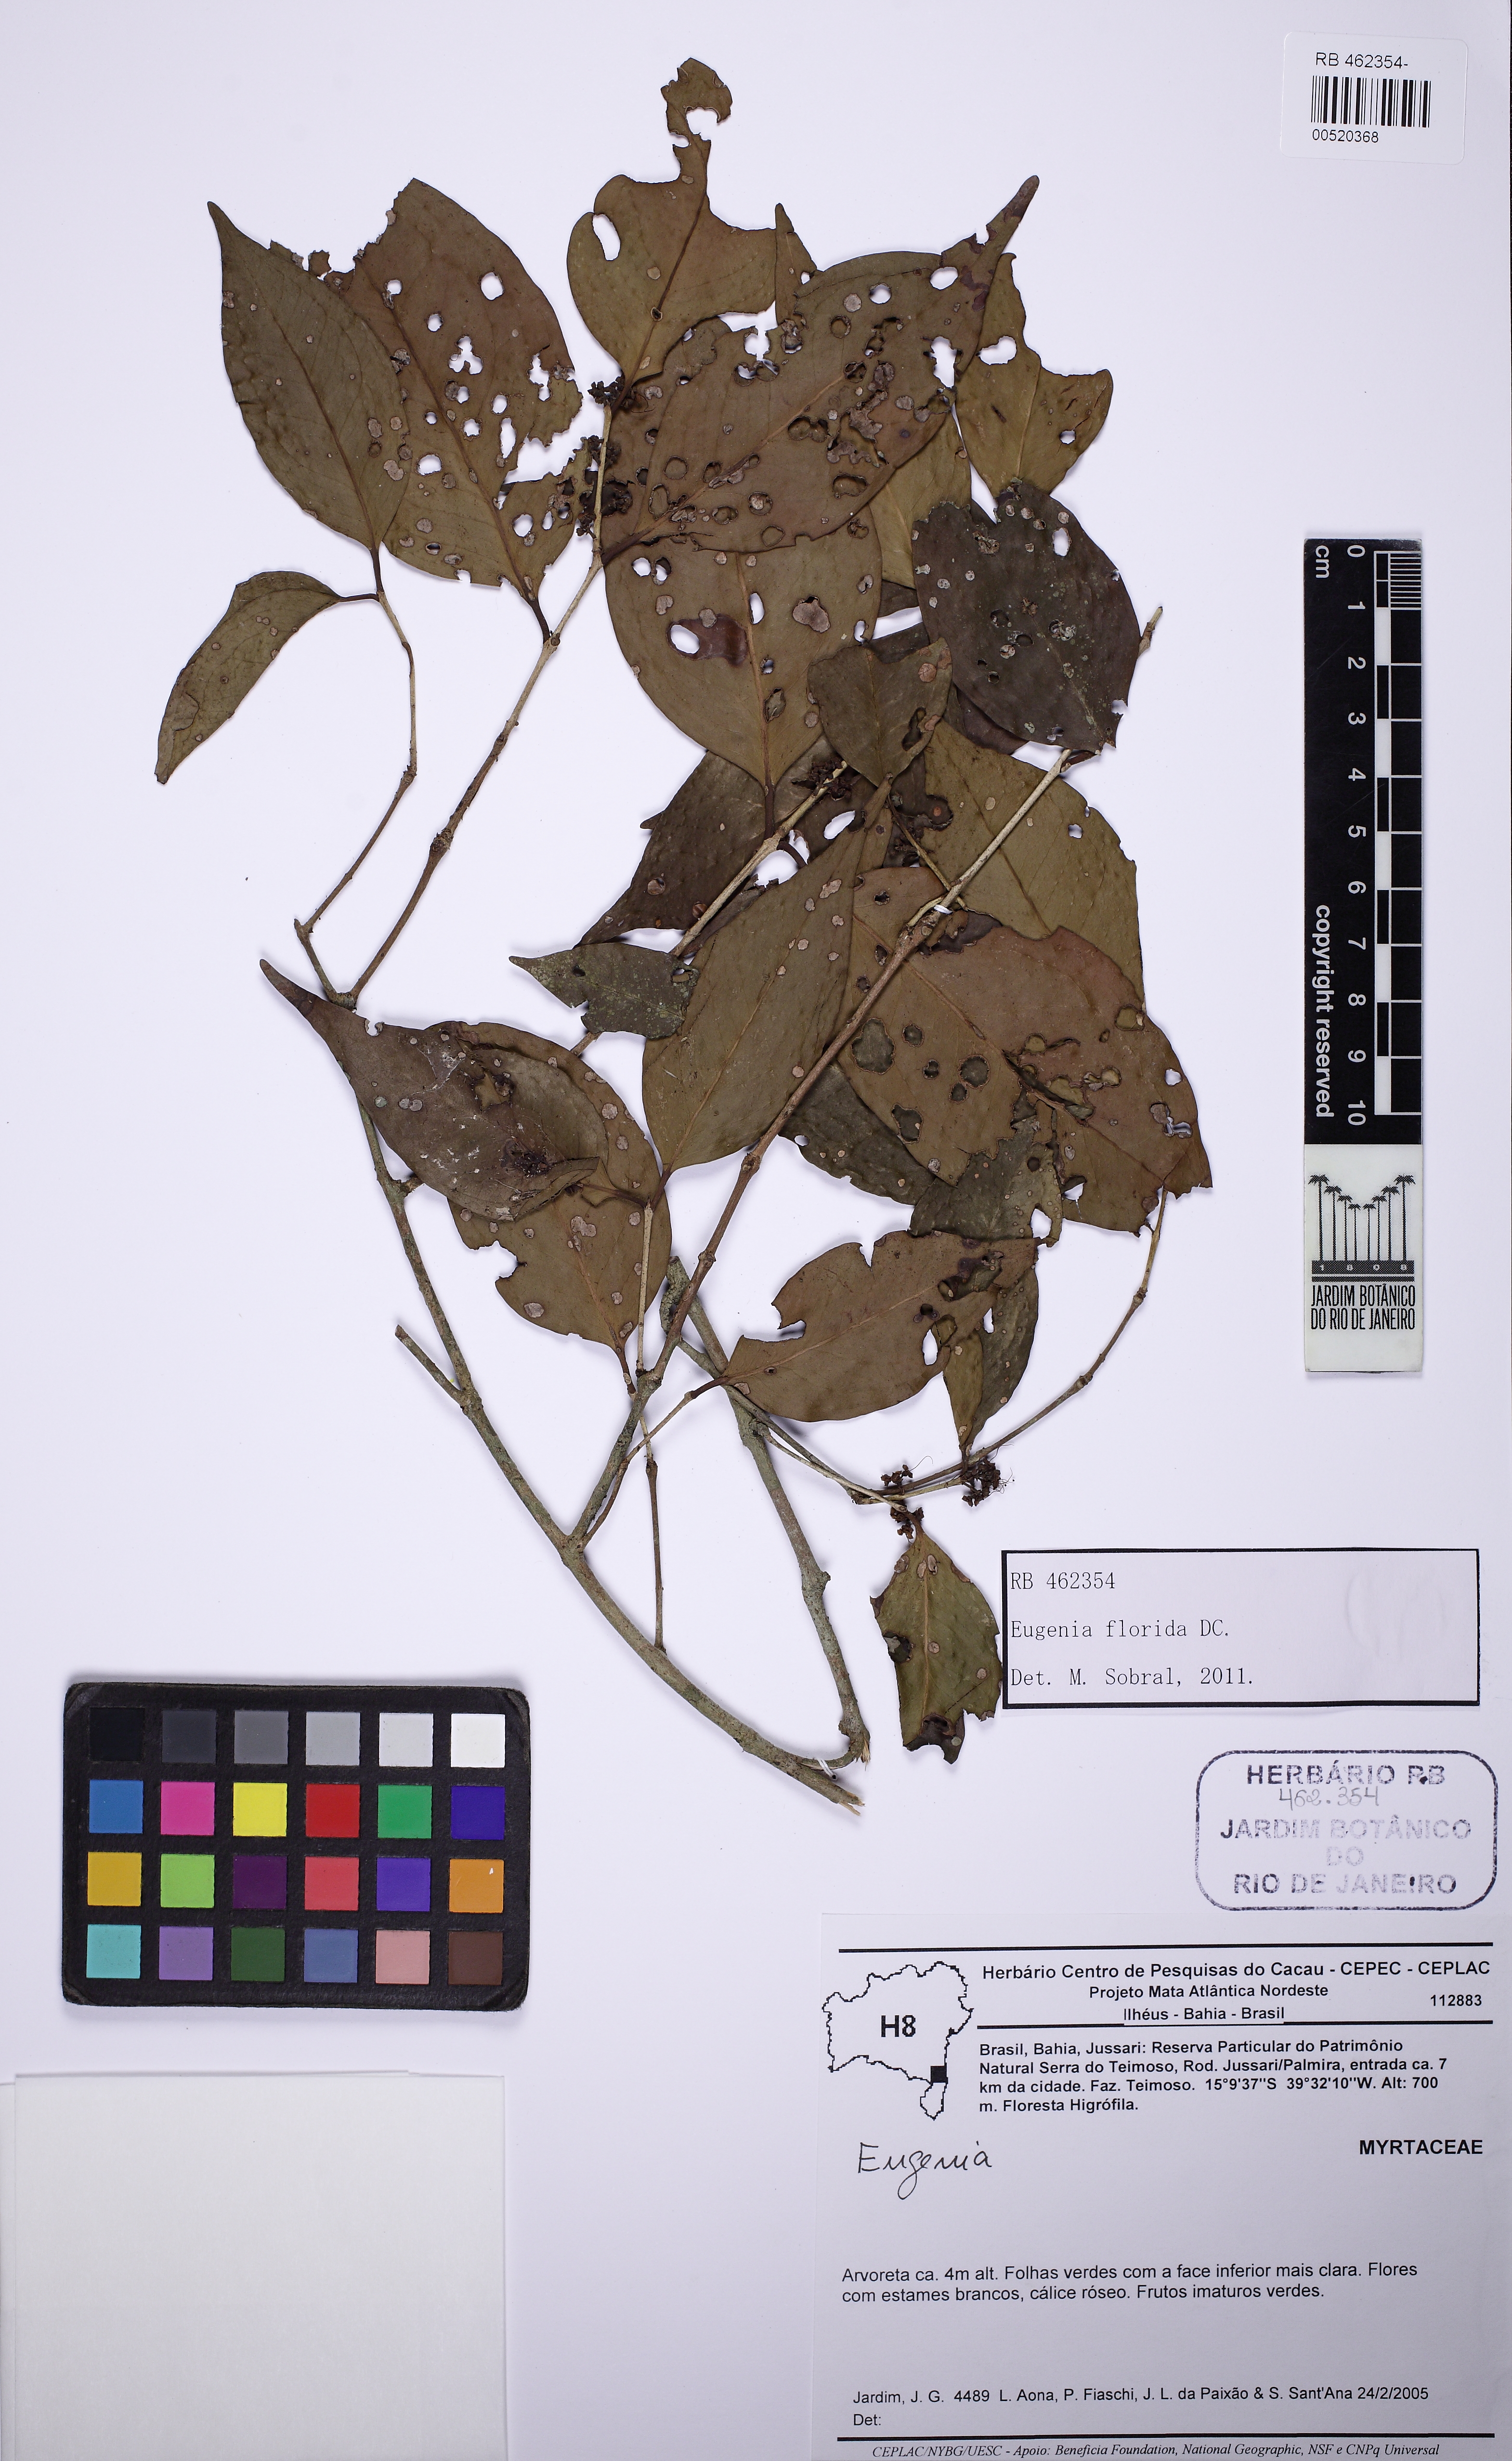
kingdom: Plantae
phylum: Tracheophyta
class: Magnoliopsida
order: Myrtales
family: Myrtaceae
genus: Eugenia
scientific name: Eugenia florida
